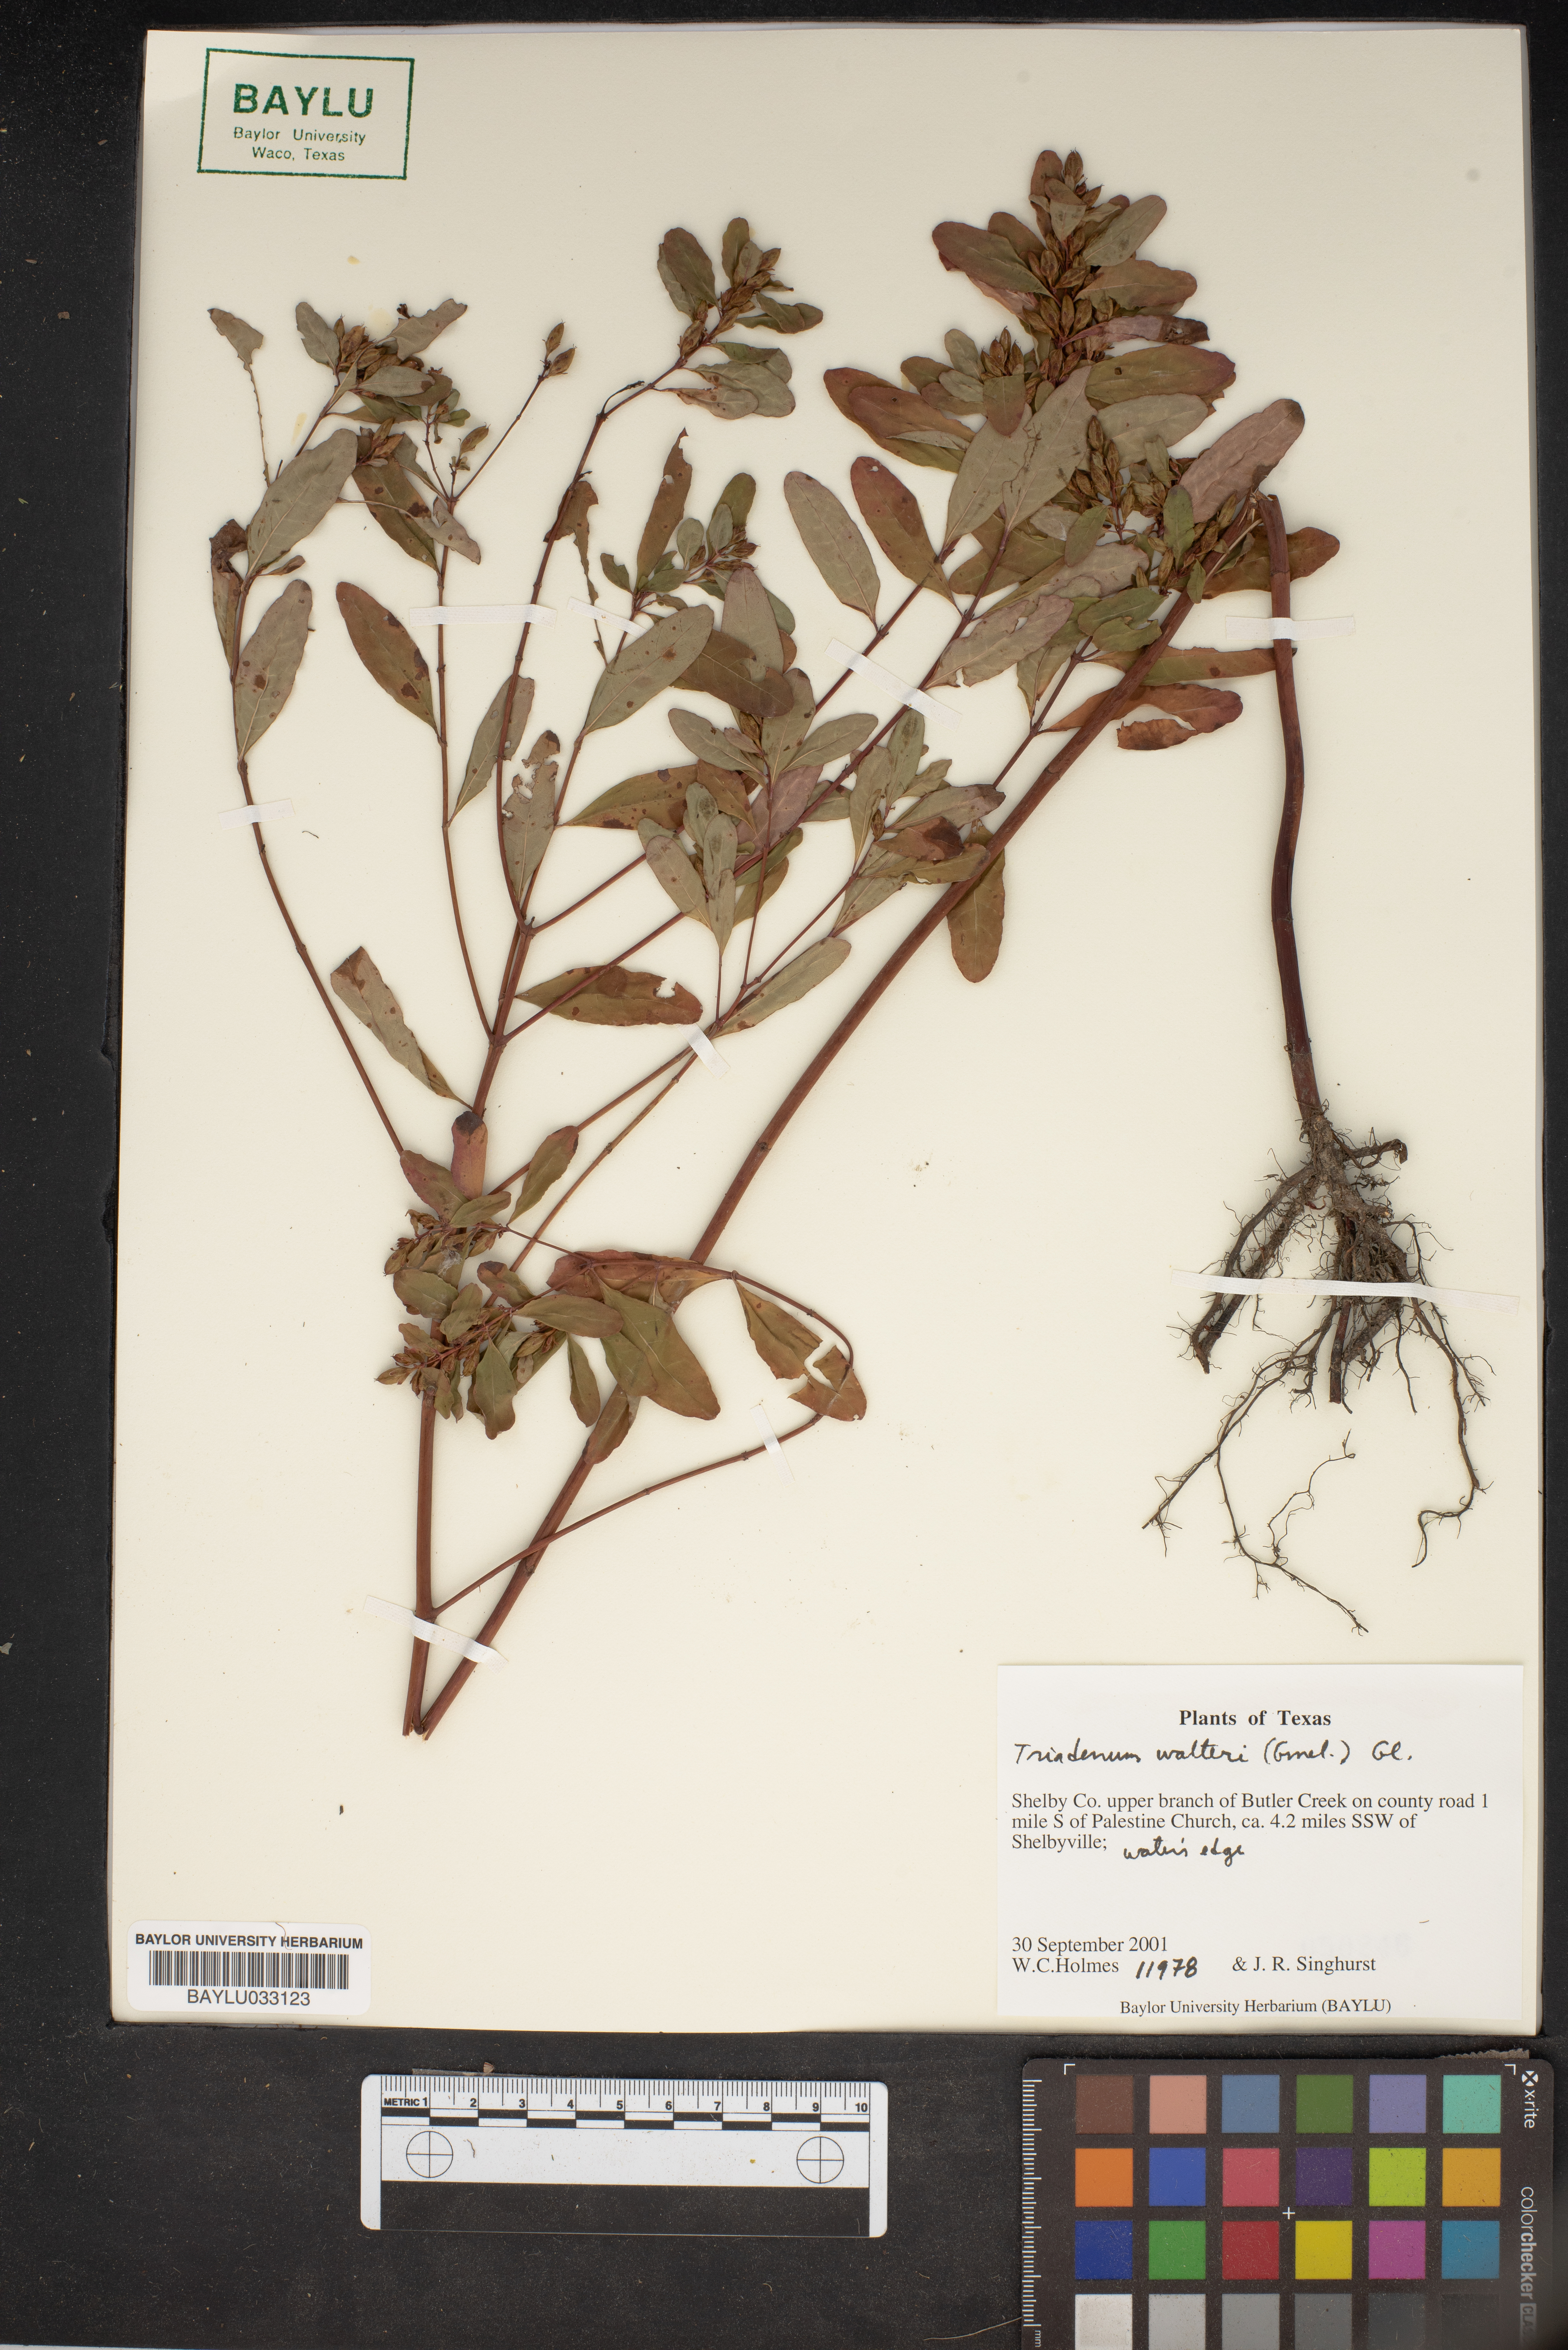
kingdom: Plantae
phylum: Tracheophyta
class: Magnoliopsida
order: Malpighiales
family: Hypericaceae
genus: Triadenum
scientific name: Triadenum walteri
